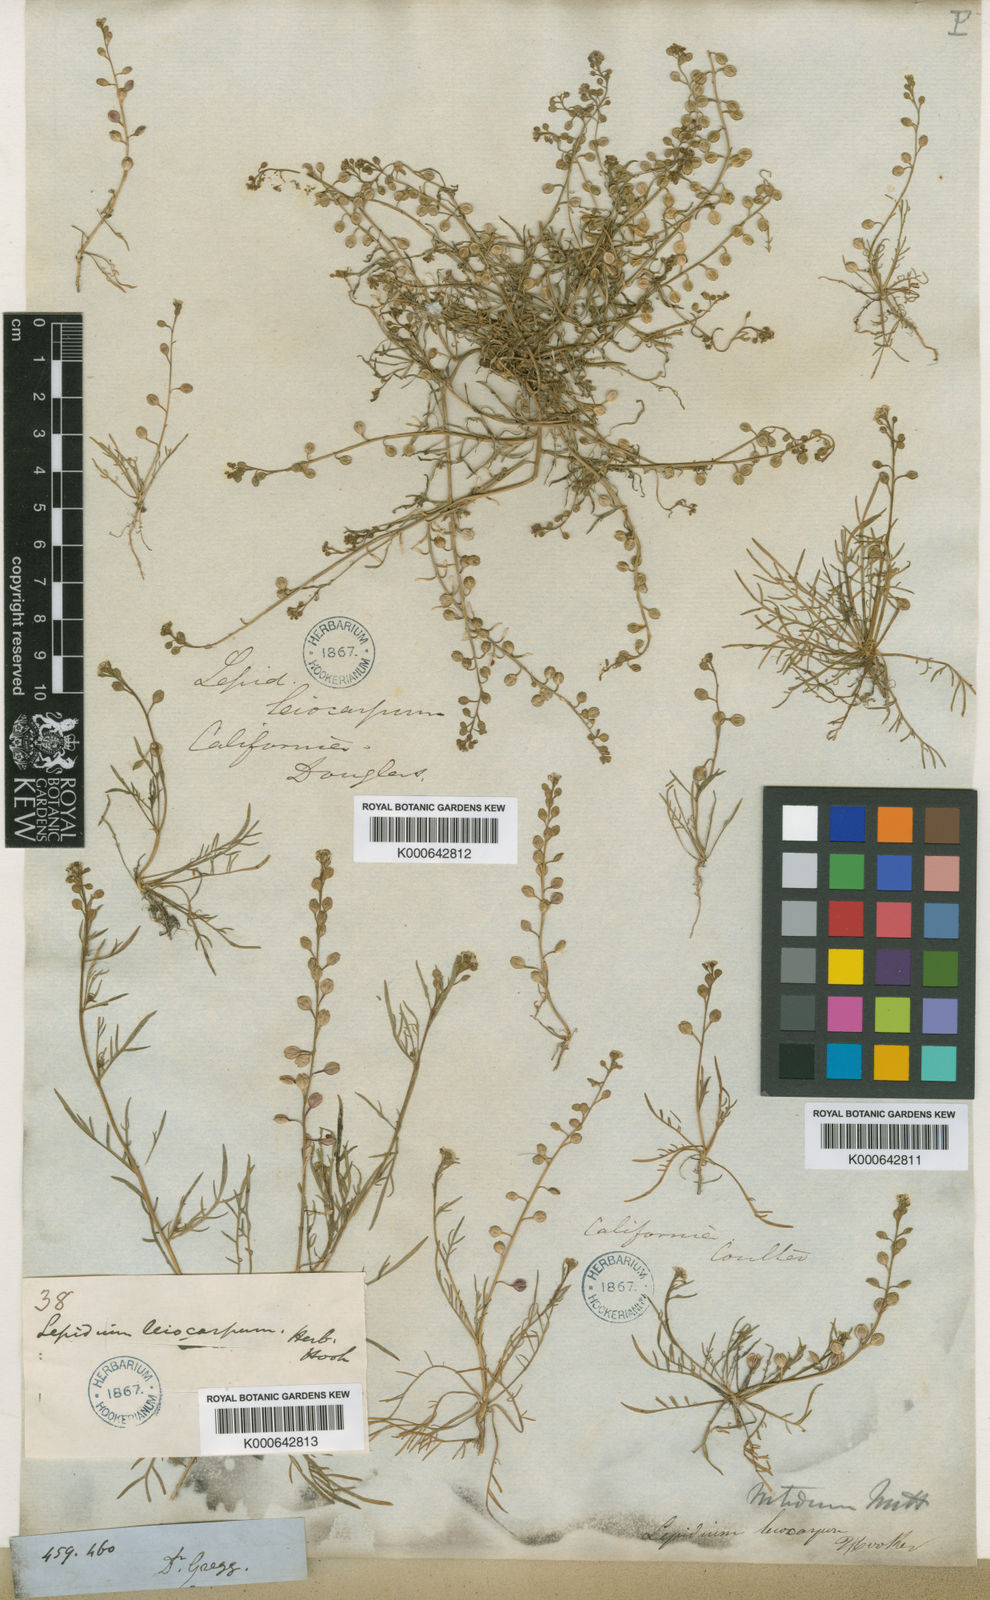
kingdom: Plantae
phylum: Tracheophyta
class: Magnoliopsida
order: Brassicales
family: Brassicaceae
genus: Lepidium
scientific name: Lepidium nitidum
